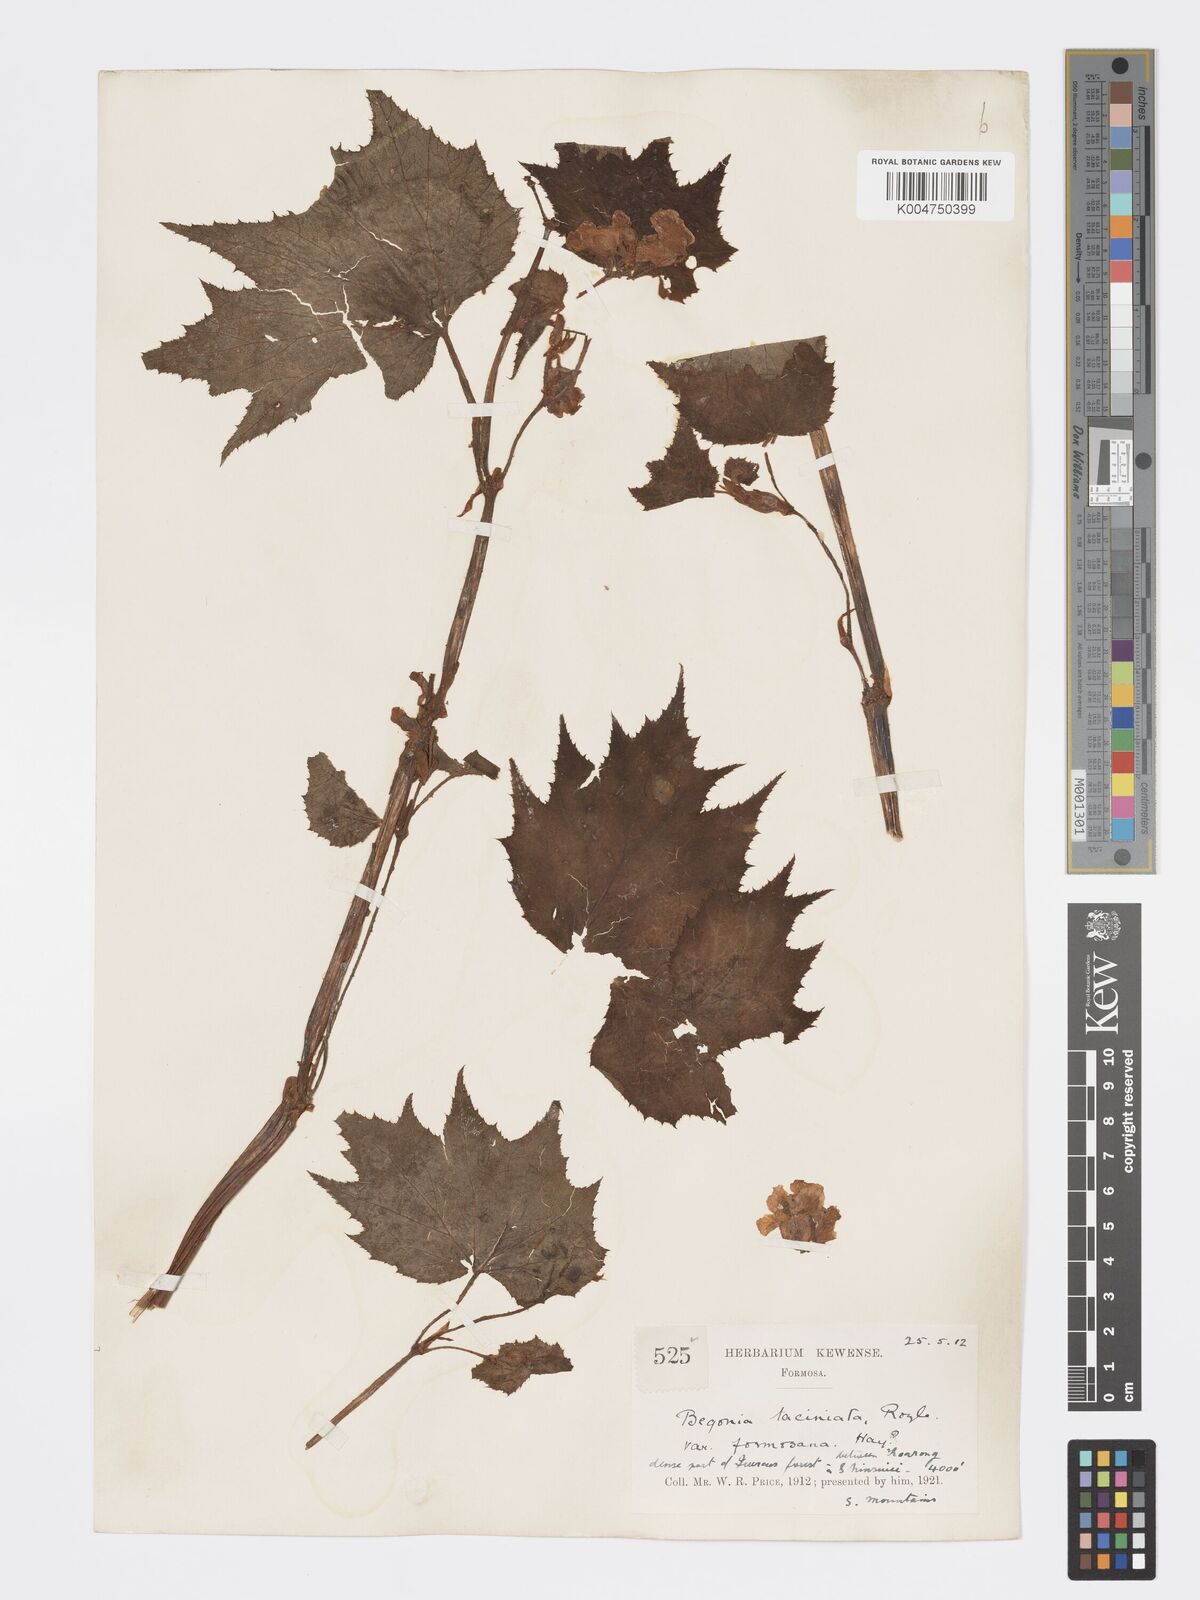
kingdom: Plantae
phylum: Tracheophyta
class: Magnoliopsida
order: Cucurbitales
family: Begoniaceae
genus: Begonia
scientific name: Begonia palmata
